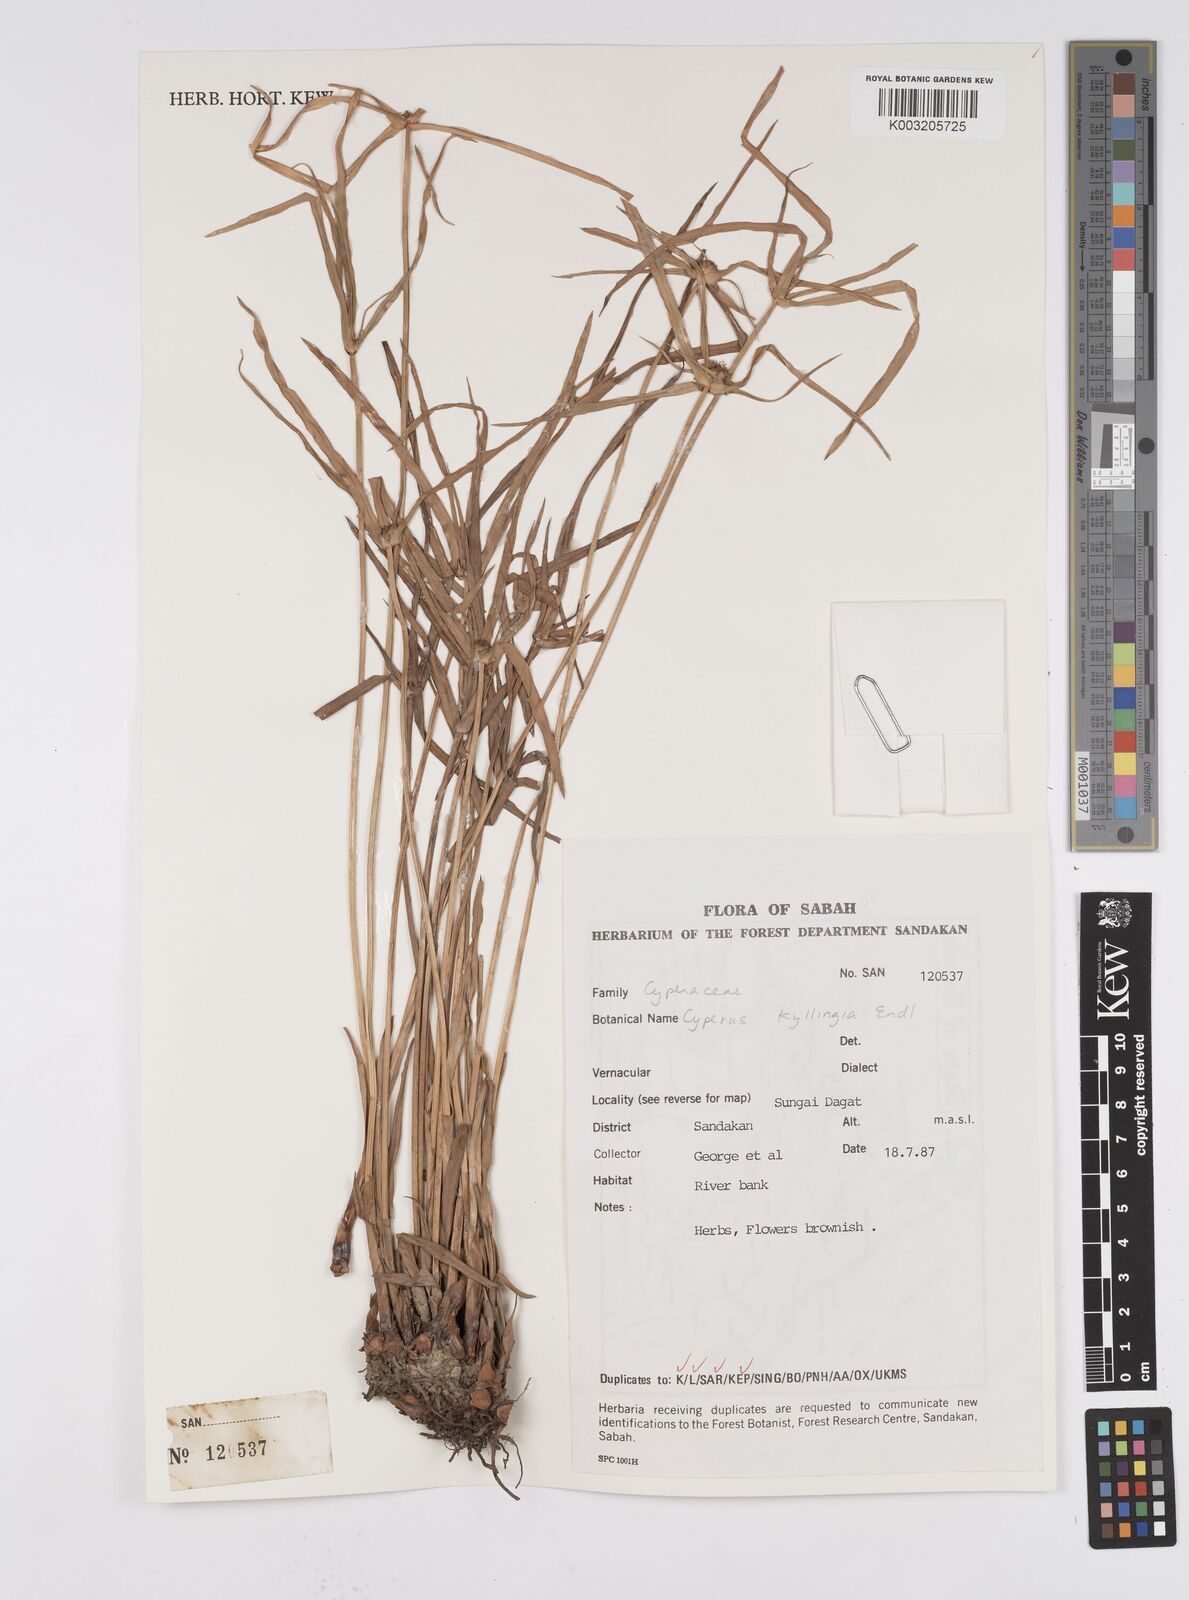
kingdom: Plantae
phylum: Tracheophyta
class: Liliopsida
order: Poales
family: Cyperaceae
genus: Cyperus
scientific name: Cyperus nemoralis
